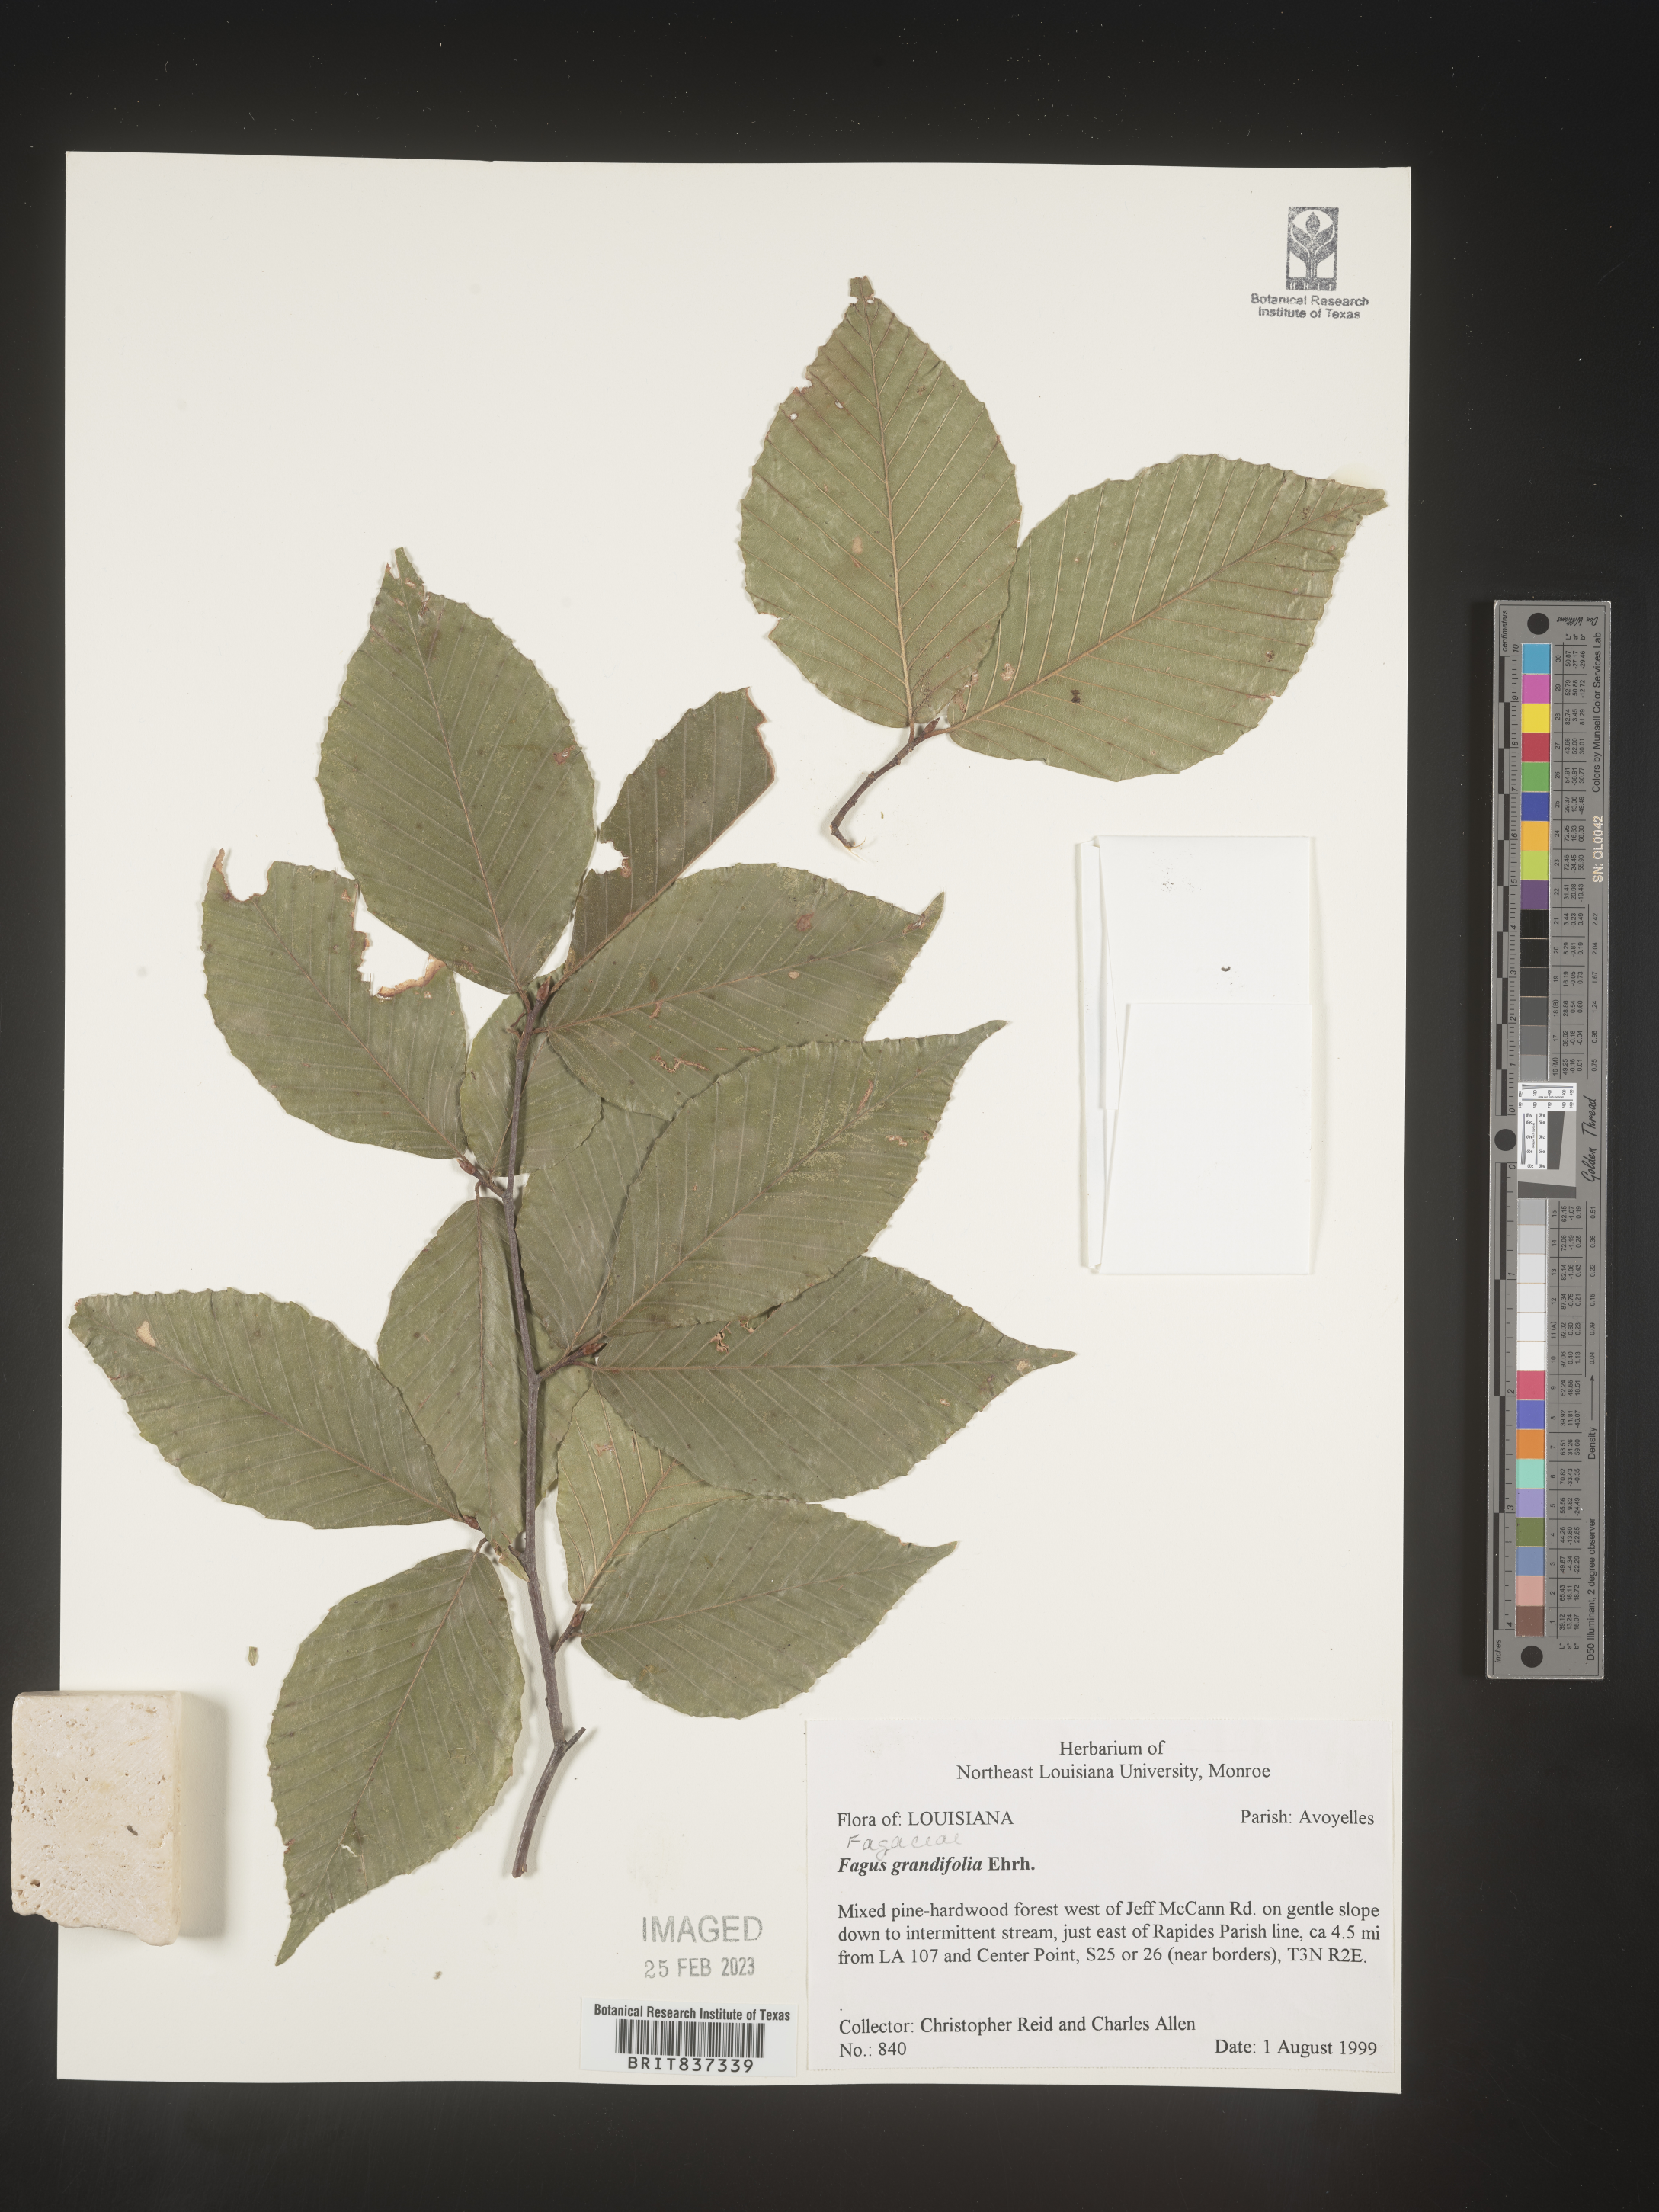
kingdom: Plantae
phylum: Tracheophyta
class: Magnoliopsida
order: Fagales
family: Fagaceae
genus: Fagus
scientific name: Fagus grandifolia
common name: American beech
